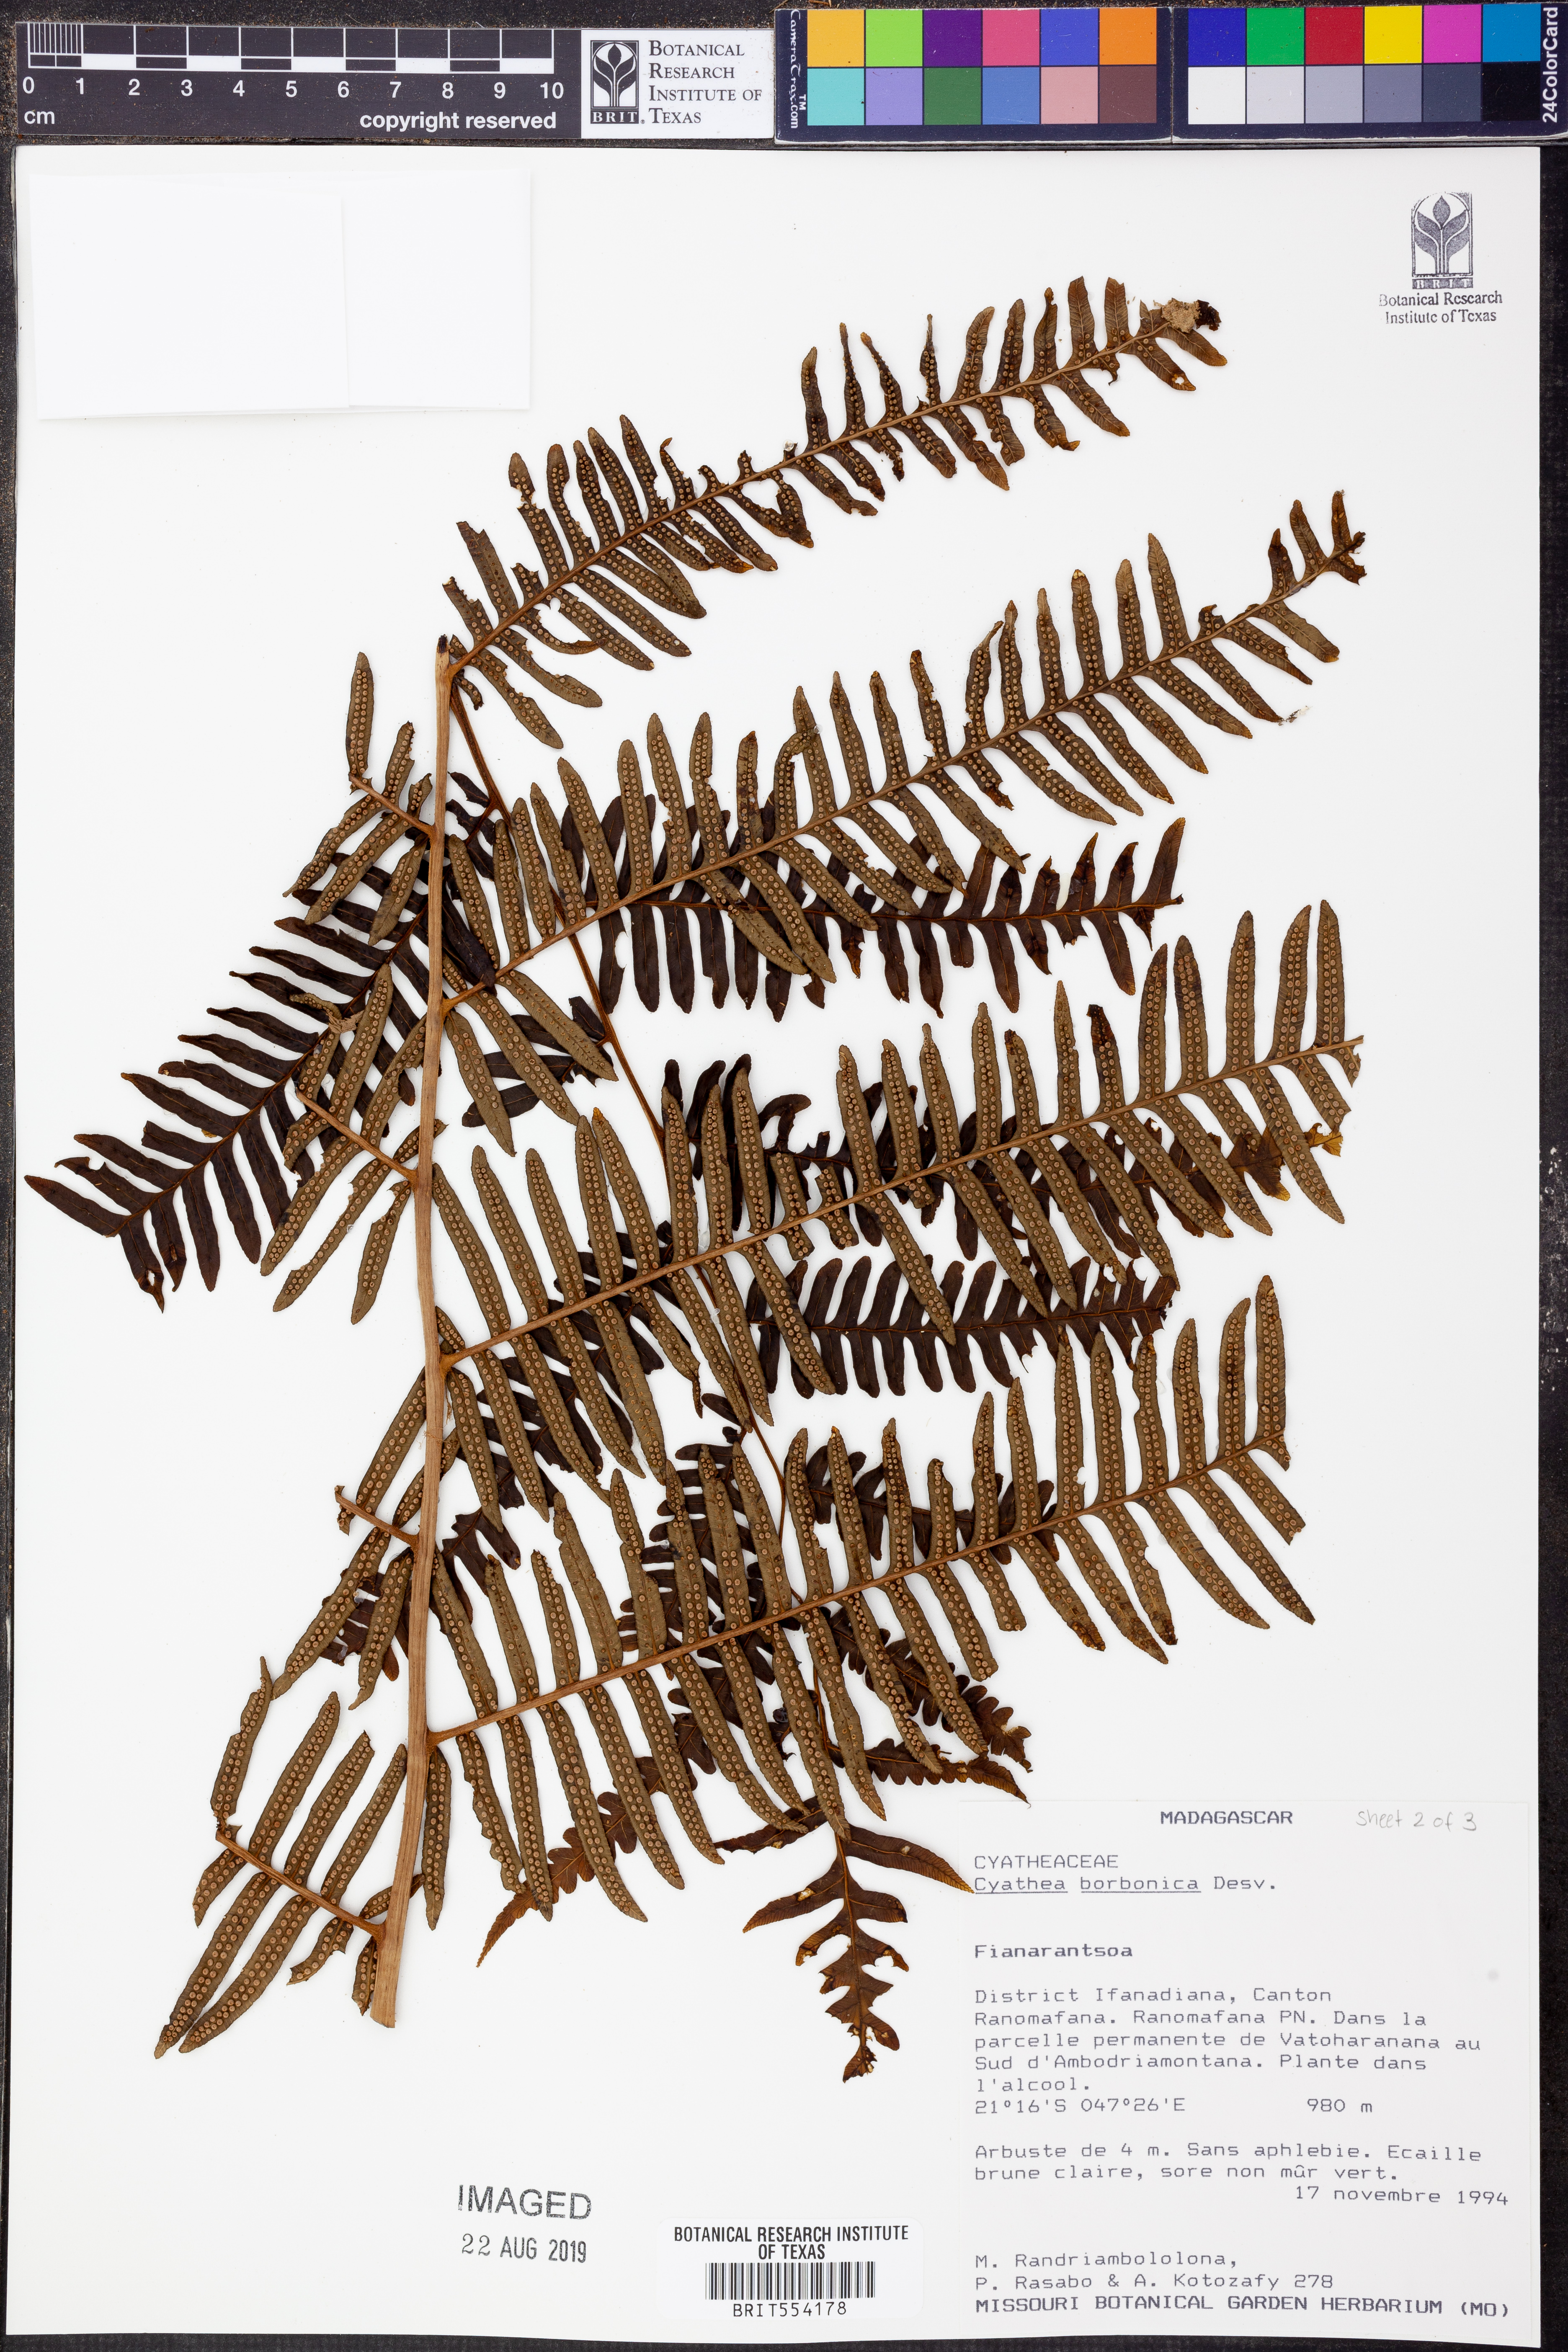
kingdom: Plantae
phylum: Tracheophyta
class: Polypodiopsida
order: Cyatheales
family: Cyatheaceae
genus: Alsophila
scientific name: Alsophila borbonica
